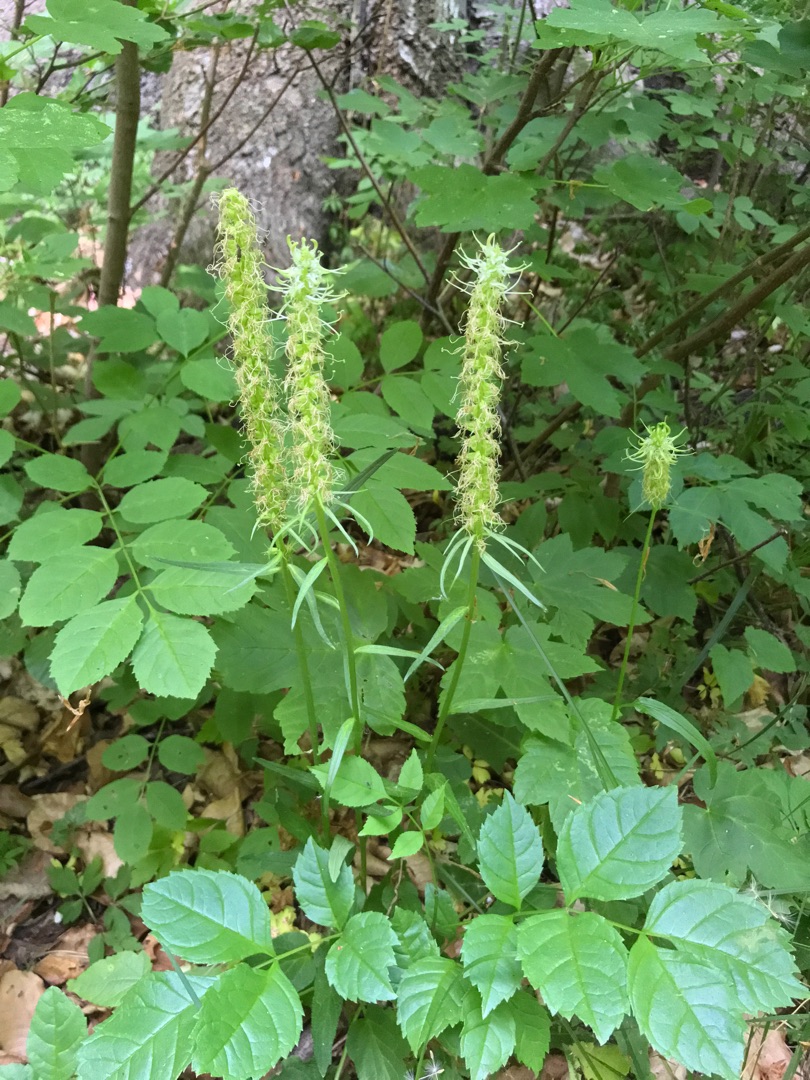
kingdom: Plantae
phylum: Tracheophyta
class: Magnoliopsida
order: Asterales
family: Campanulaceae
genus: Phyteuma
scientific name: Phyteuma spicatum
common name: Aks-rapunsel
